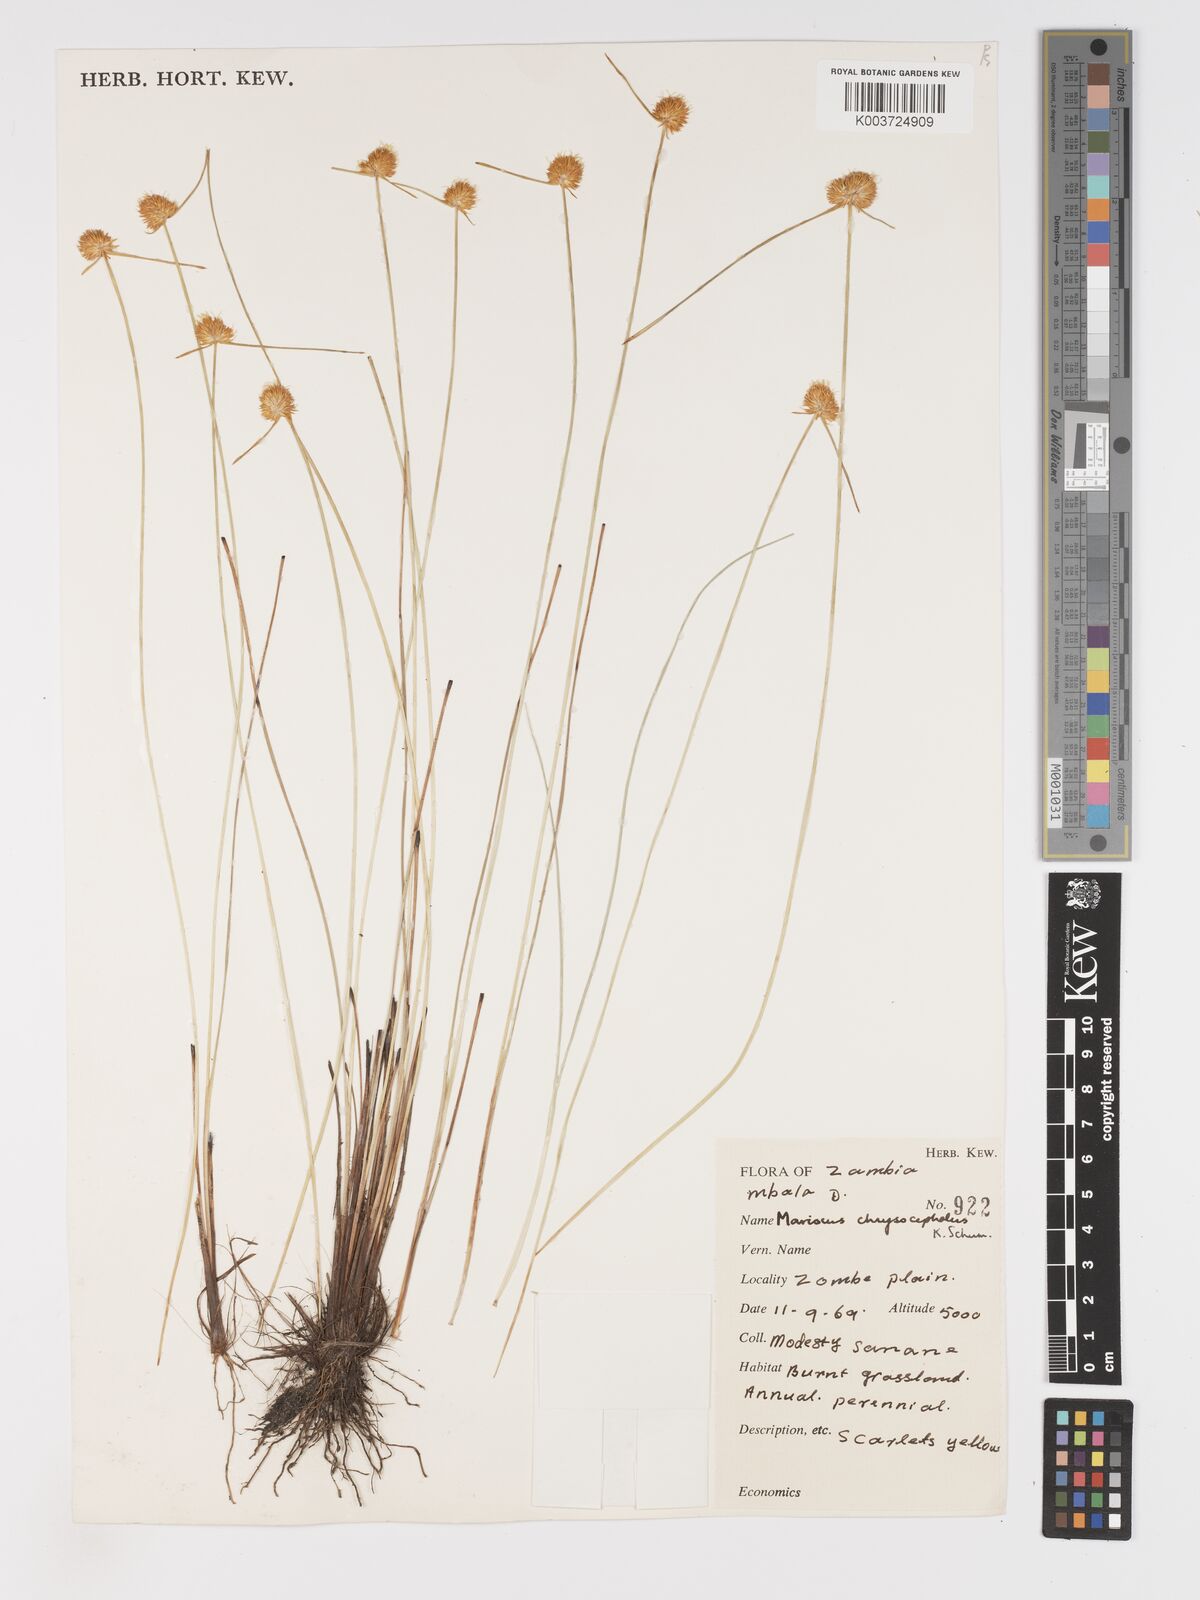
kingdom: Plantae
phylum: Tracheophyta
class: Liliopsida
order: Poales
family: Cyperaceae
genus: Cyperus
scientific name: Cyperus chrysocephalus
